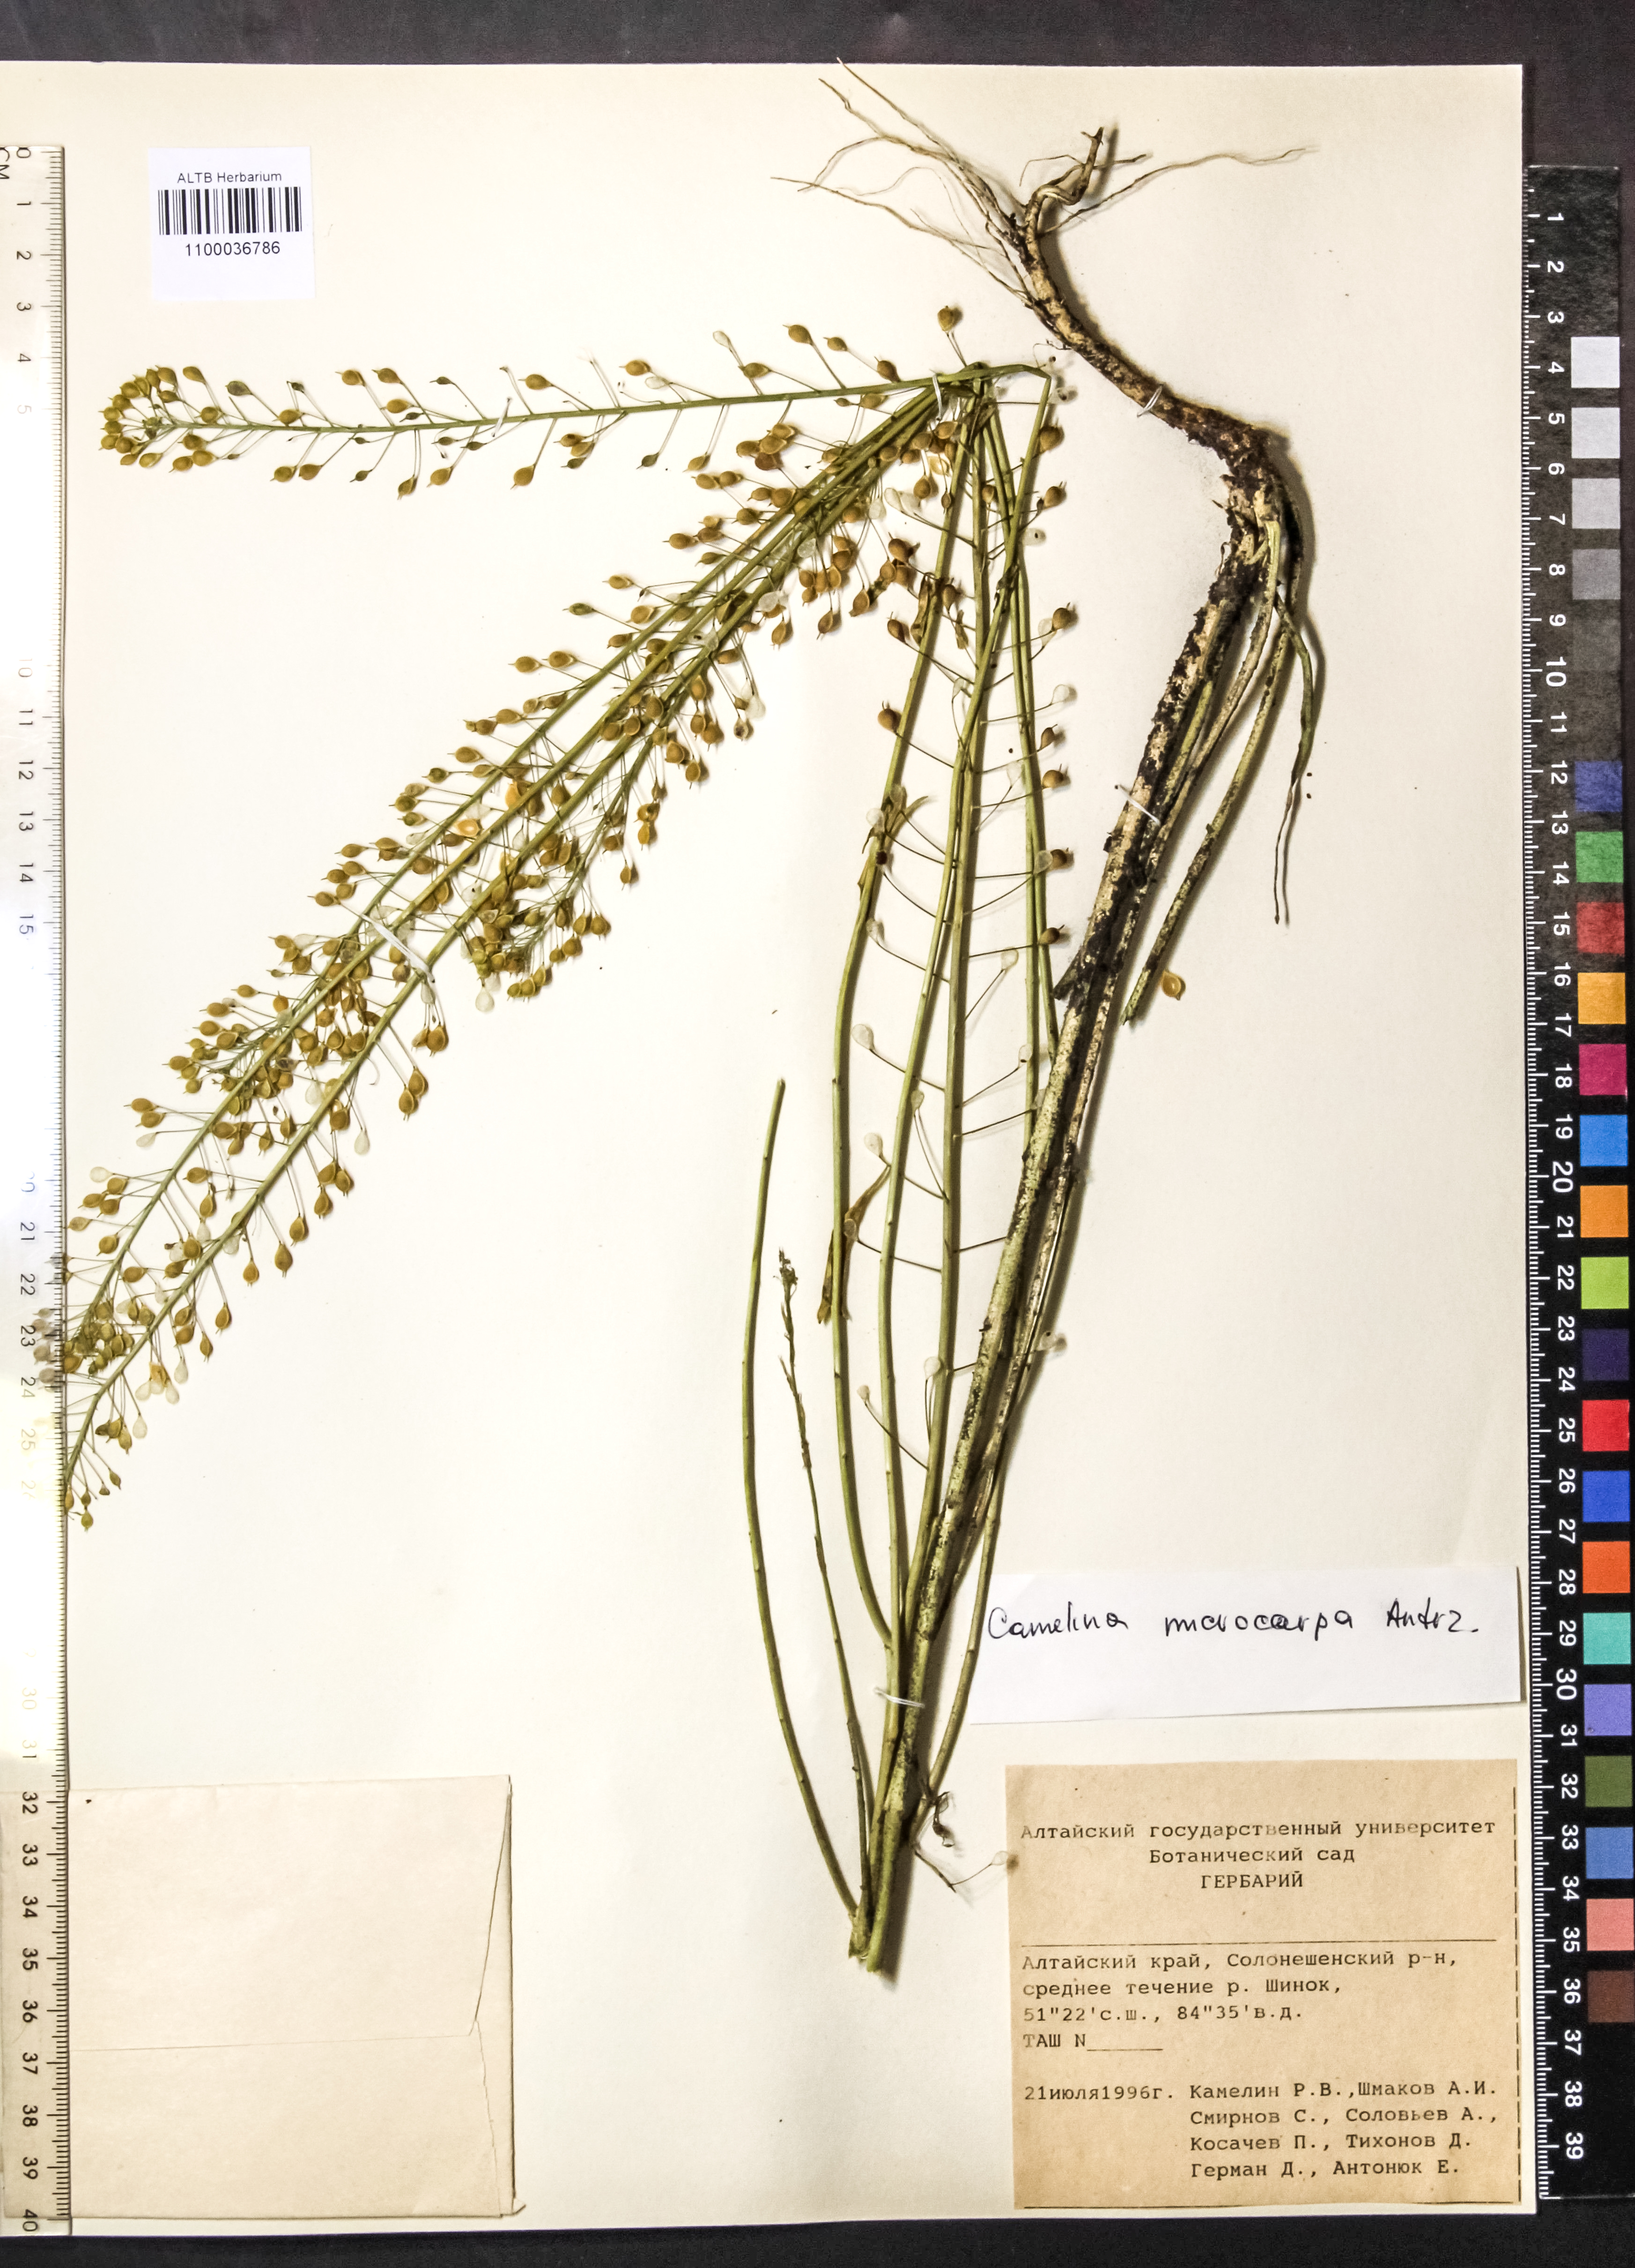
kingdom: Plantae
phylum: Tracheophyta
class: Magnoliopsida
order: Brassicales
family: Brassicaceae
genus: Camelina
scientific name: Camelina microcarpa
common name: Lesser gold-of-pleasure
